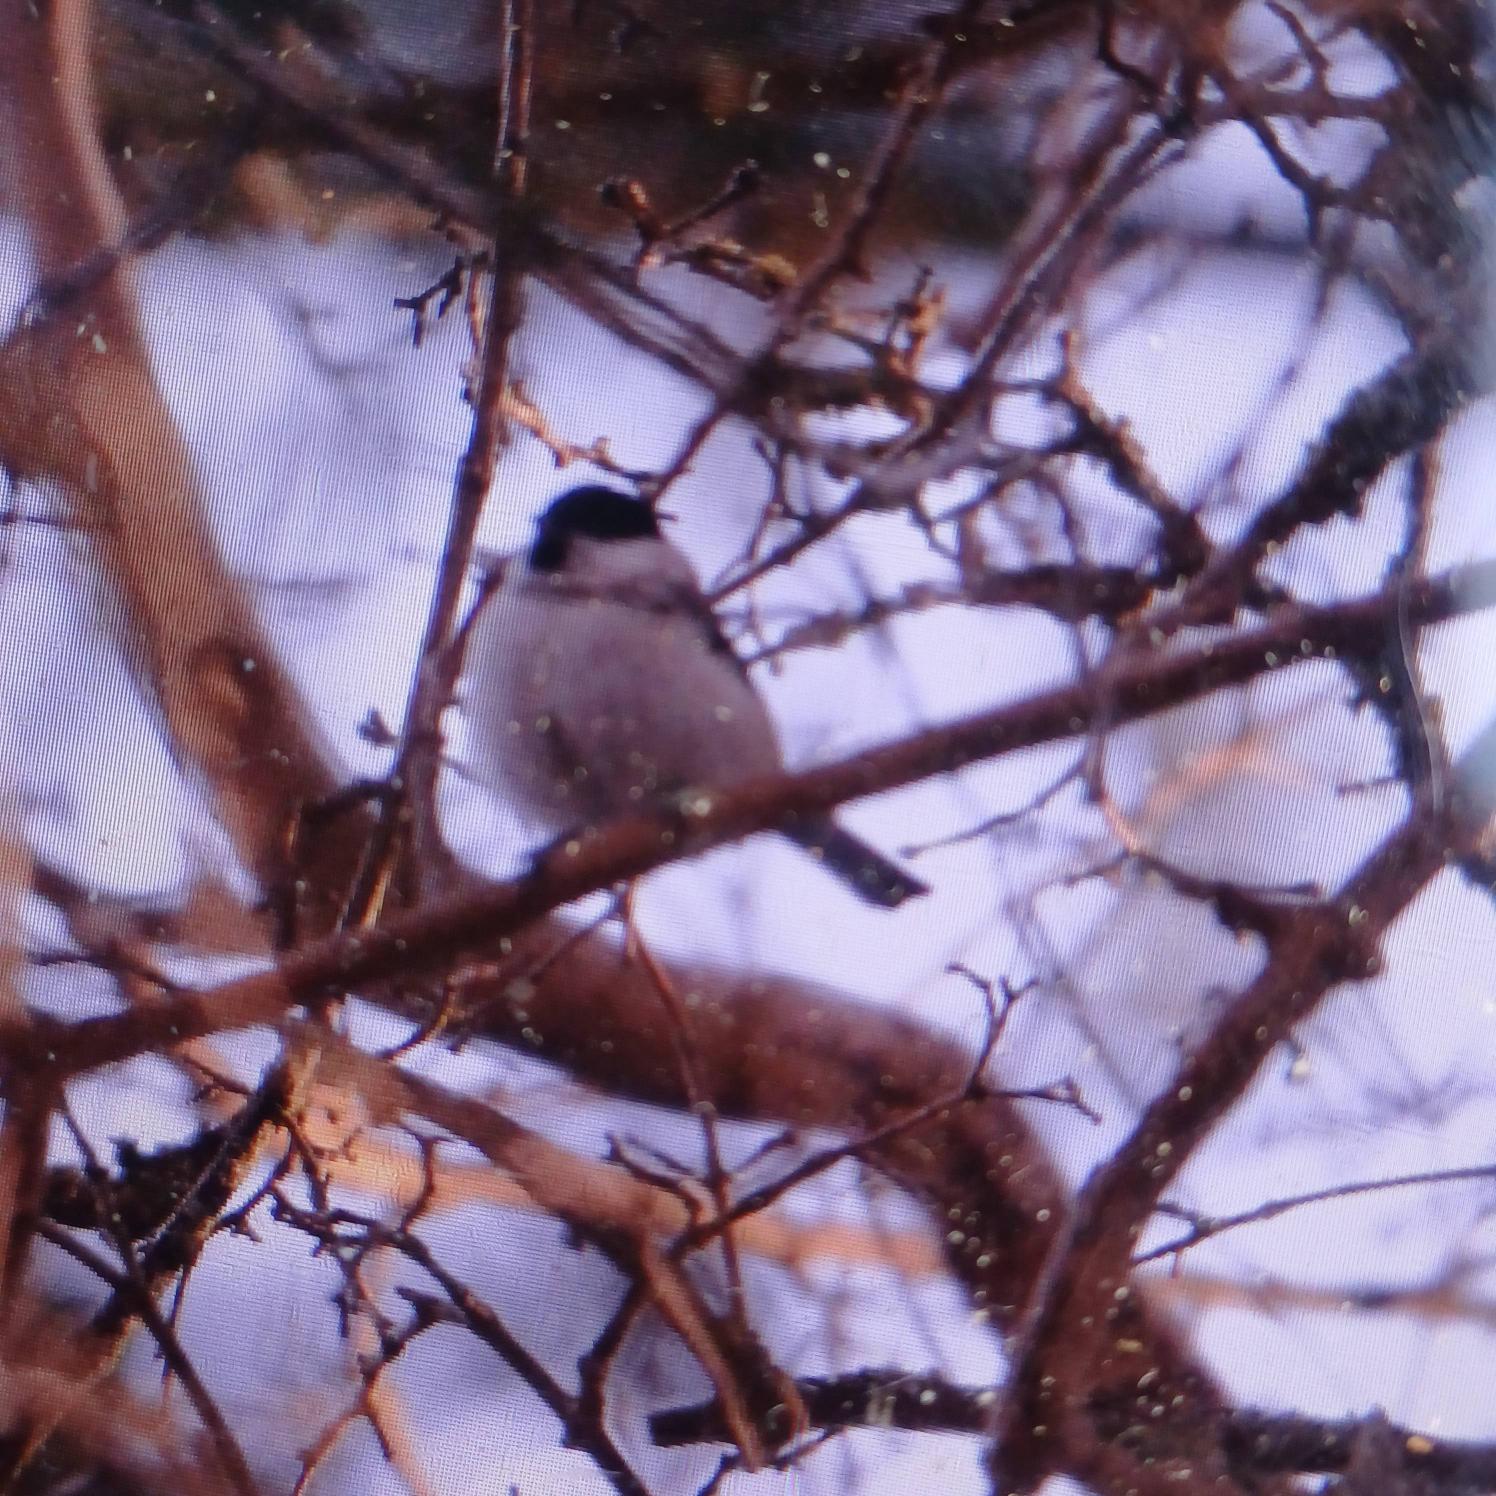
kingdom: Animalia
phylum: Chordata
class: Aves
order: Passeriformes
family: Paridae
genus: Poecile
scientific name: Poecile palustris
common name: Sumpmejse
